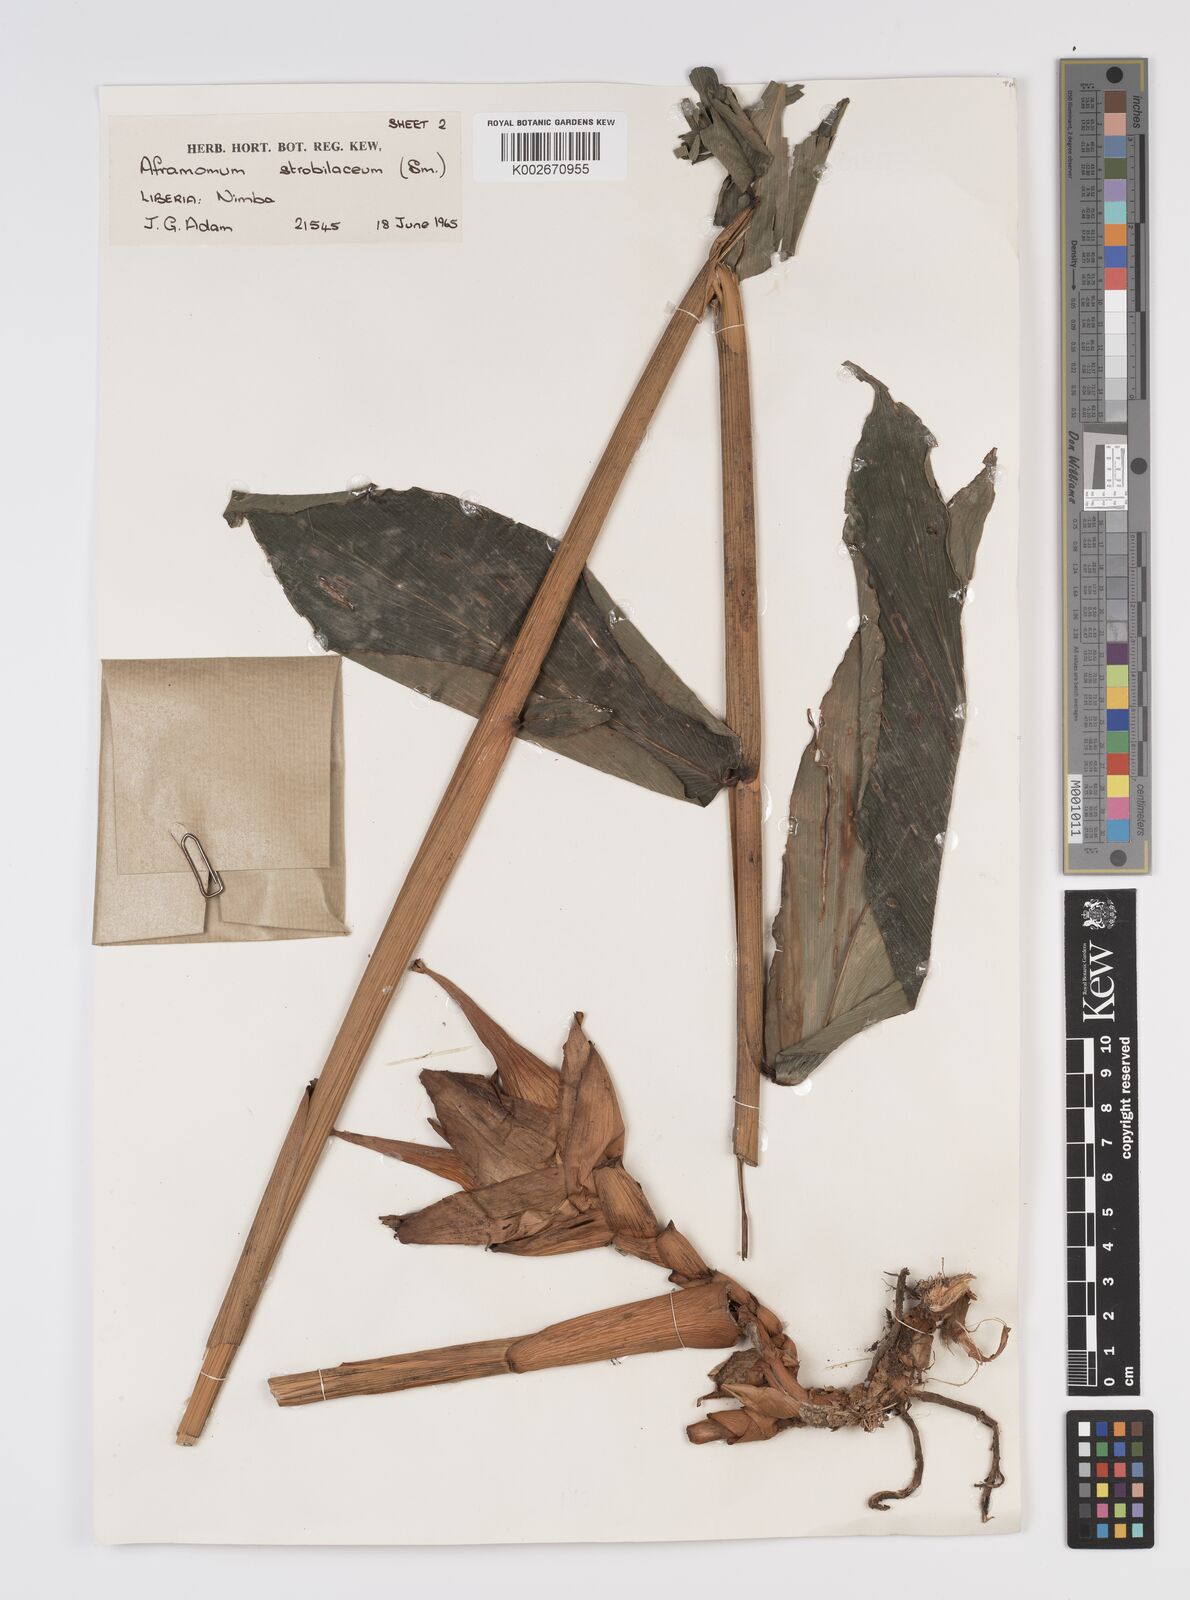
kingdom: Plantae
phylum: Tracheophyta
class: Liliopsida
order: Zingiberales
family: Zingiberaceae
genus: Aframomum
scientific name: Aframomum strobilaceum
